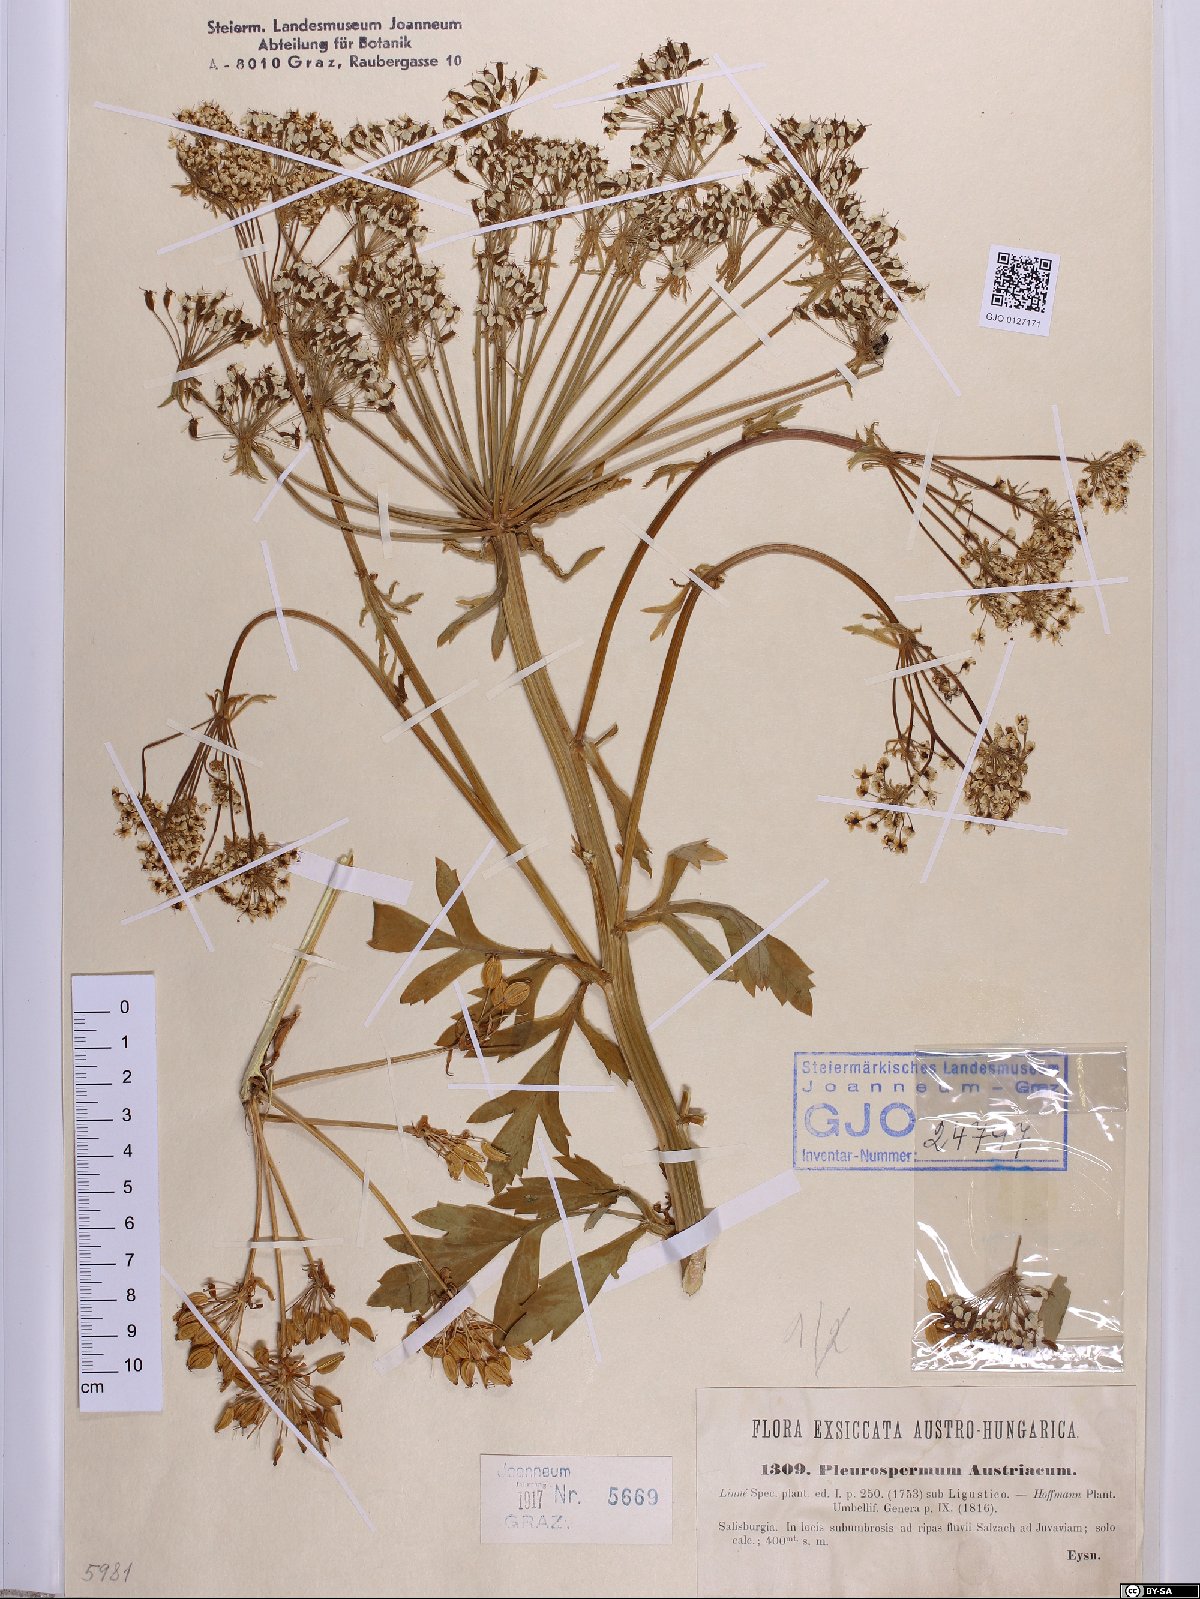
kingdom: Plantae
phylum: Tracheophyta
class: Magnoliopsida
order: Apiales
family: Apiaceae
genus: Pleurospermum
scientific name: Pleurospermum austriacum
